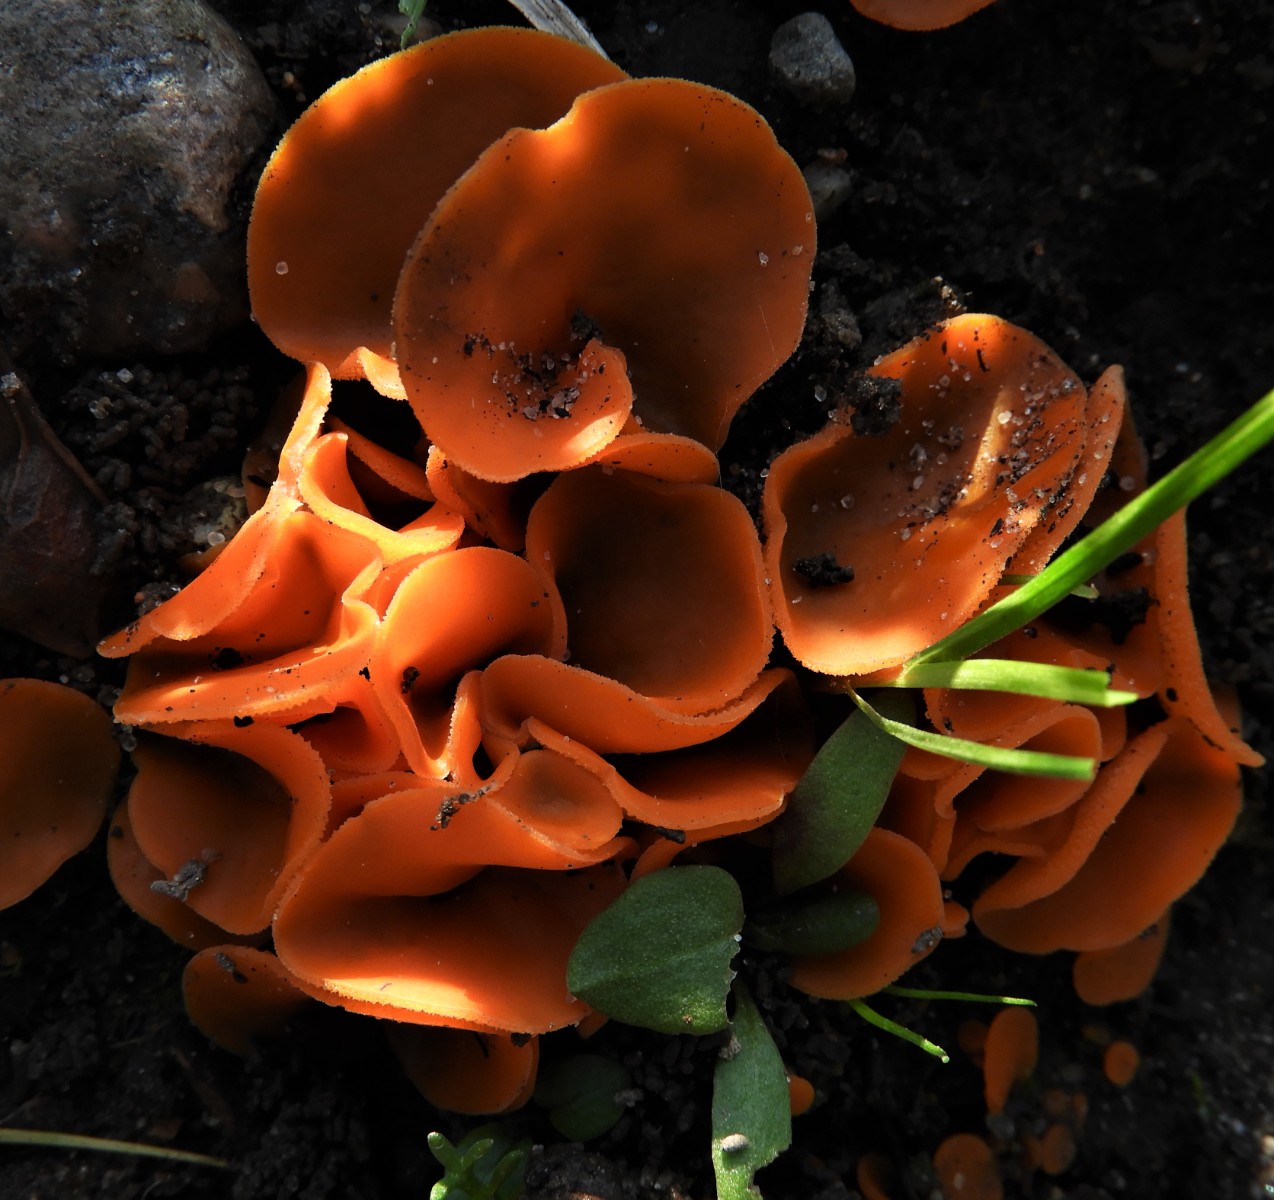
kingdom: Fungi
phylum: Ascomycota
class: Pezizomycetes
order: Pezizales
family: Pyronemataceae
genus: Aleuria
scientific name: Aleuria aurantia
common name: almindelig orangebæger
